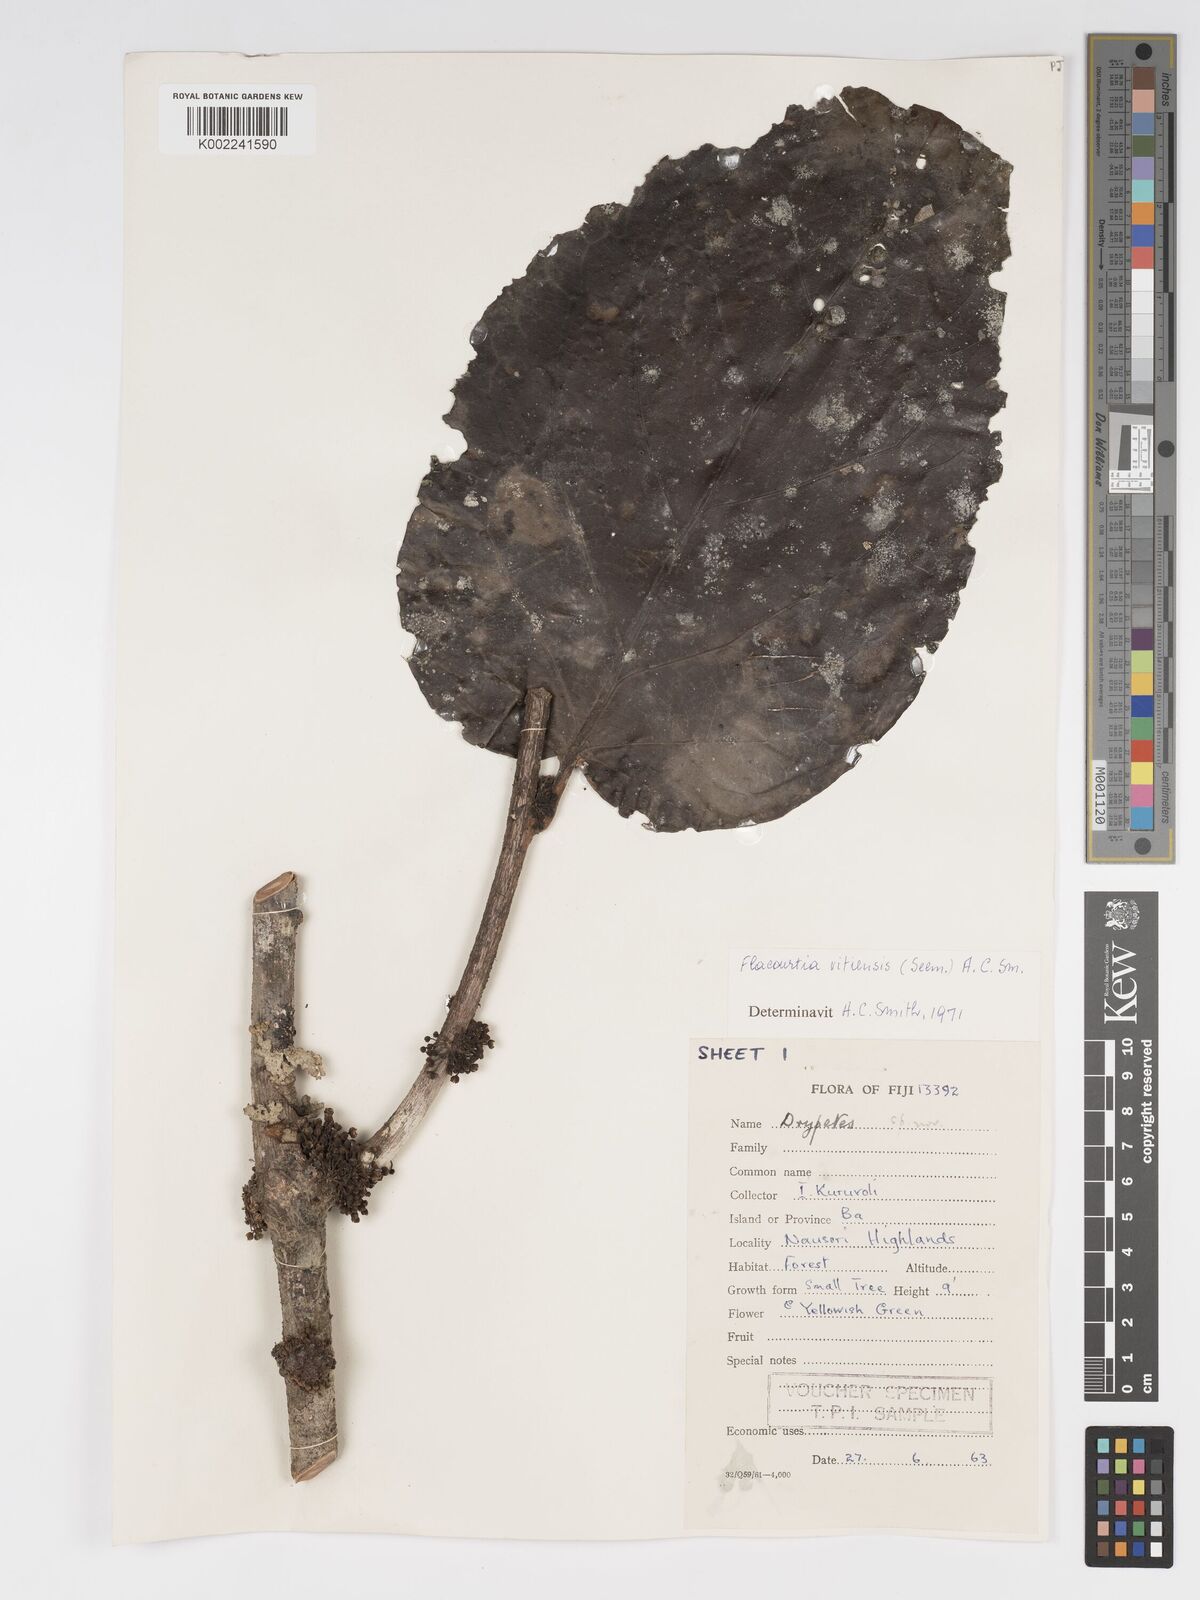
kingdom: Plantae
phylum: Tracheophyta
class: Magnoliopsida
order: Malpighiales
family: Salicaceae
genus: Flacourtia
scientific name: Flacourtia vitiensis
